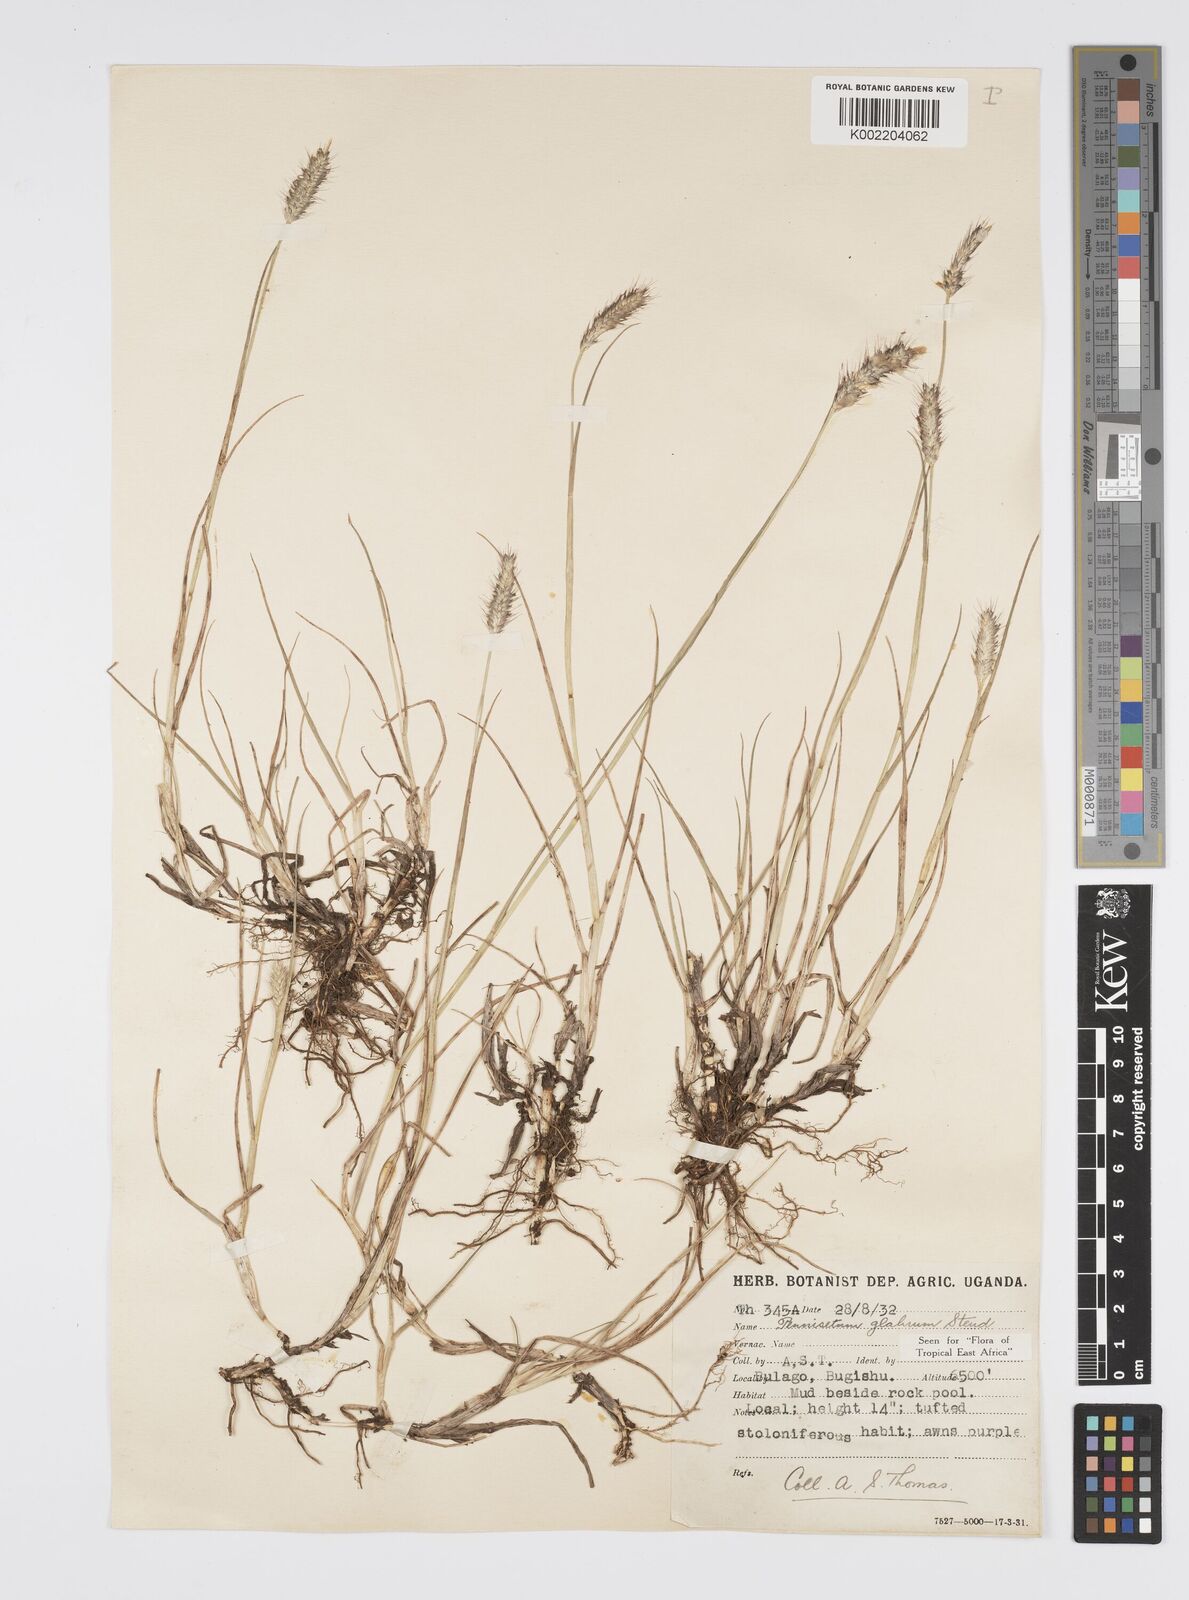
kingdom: Plantae
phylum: Tracheophyta
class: Liliopsida
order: Poales
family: Poaceae
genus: Cenchrus
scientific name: Cenchrus geniculatus
